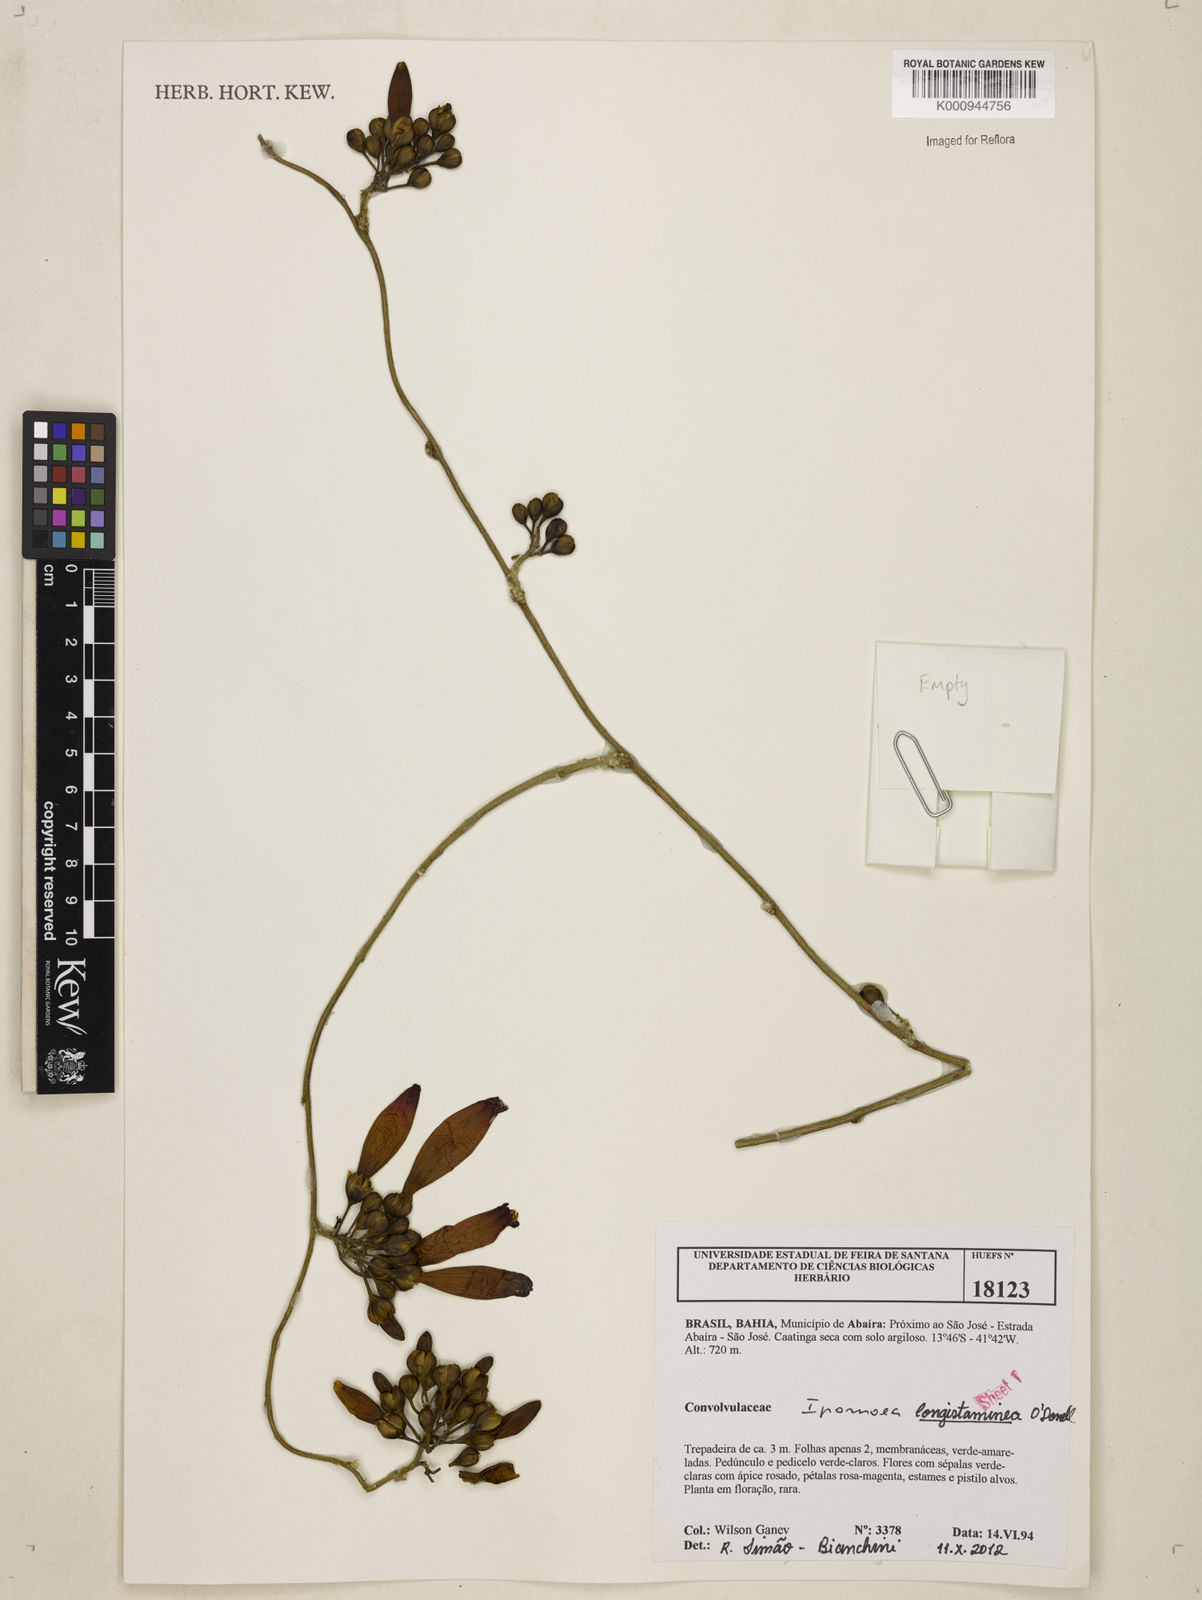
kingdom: Plantae
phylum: Tracheophyta
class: Magnoliopsida
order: Solanales
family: Convolvulaceae
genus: Ipomoea
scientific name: Ipomoea longistaminea
